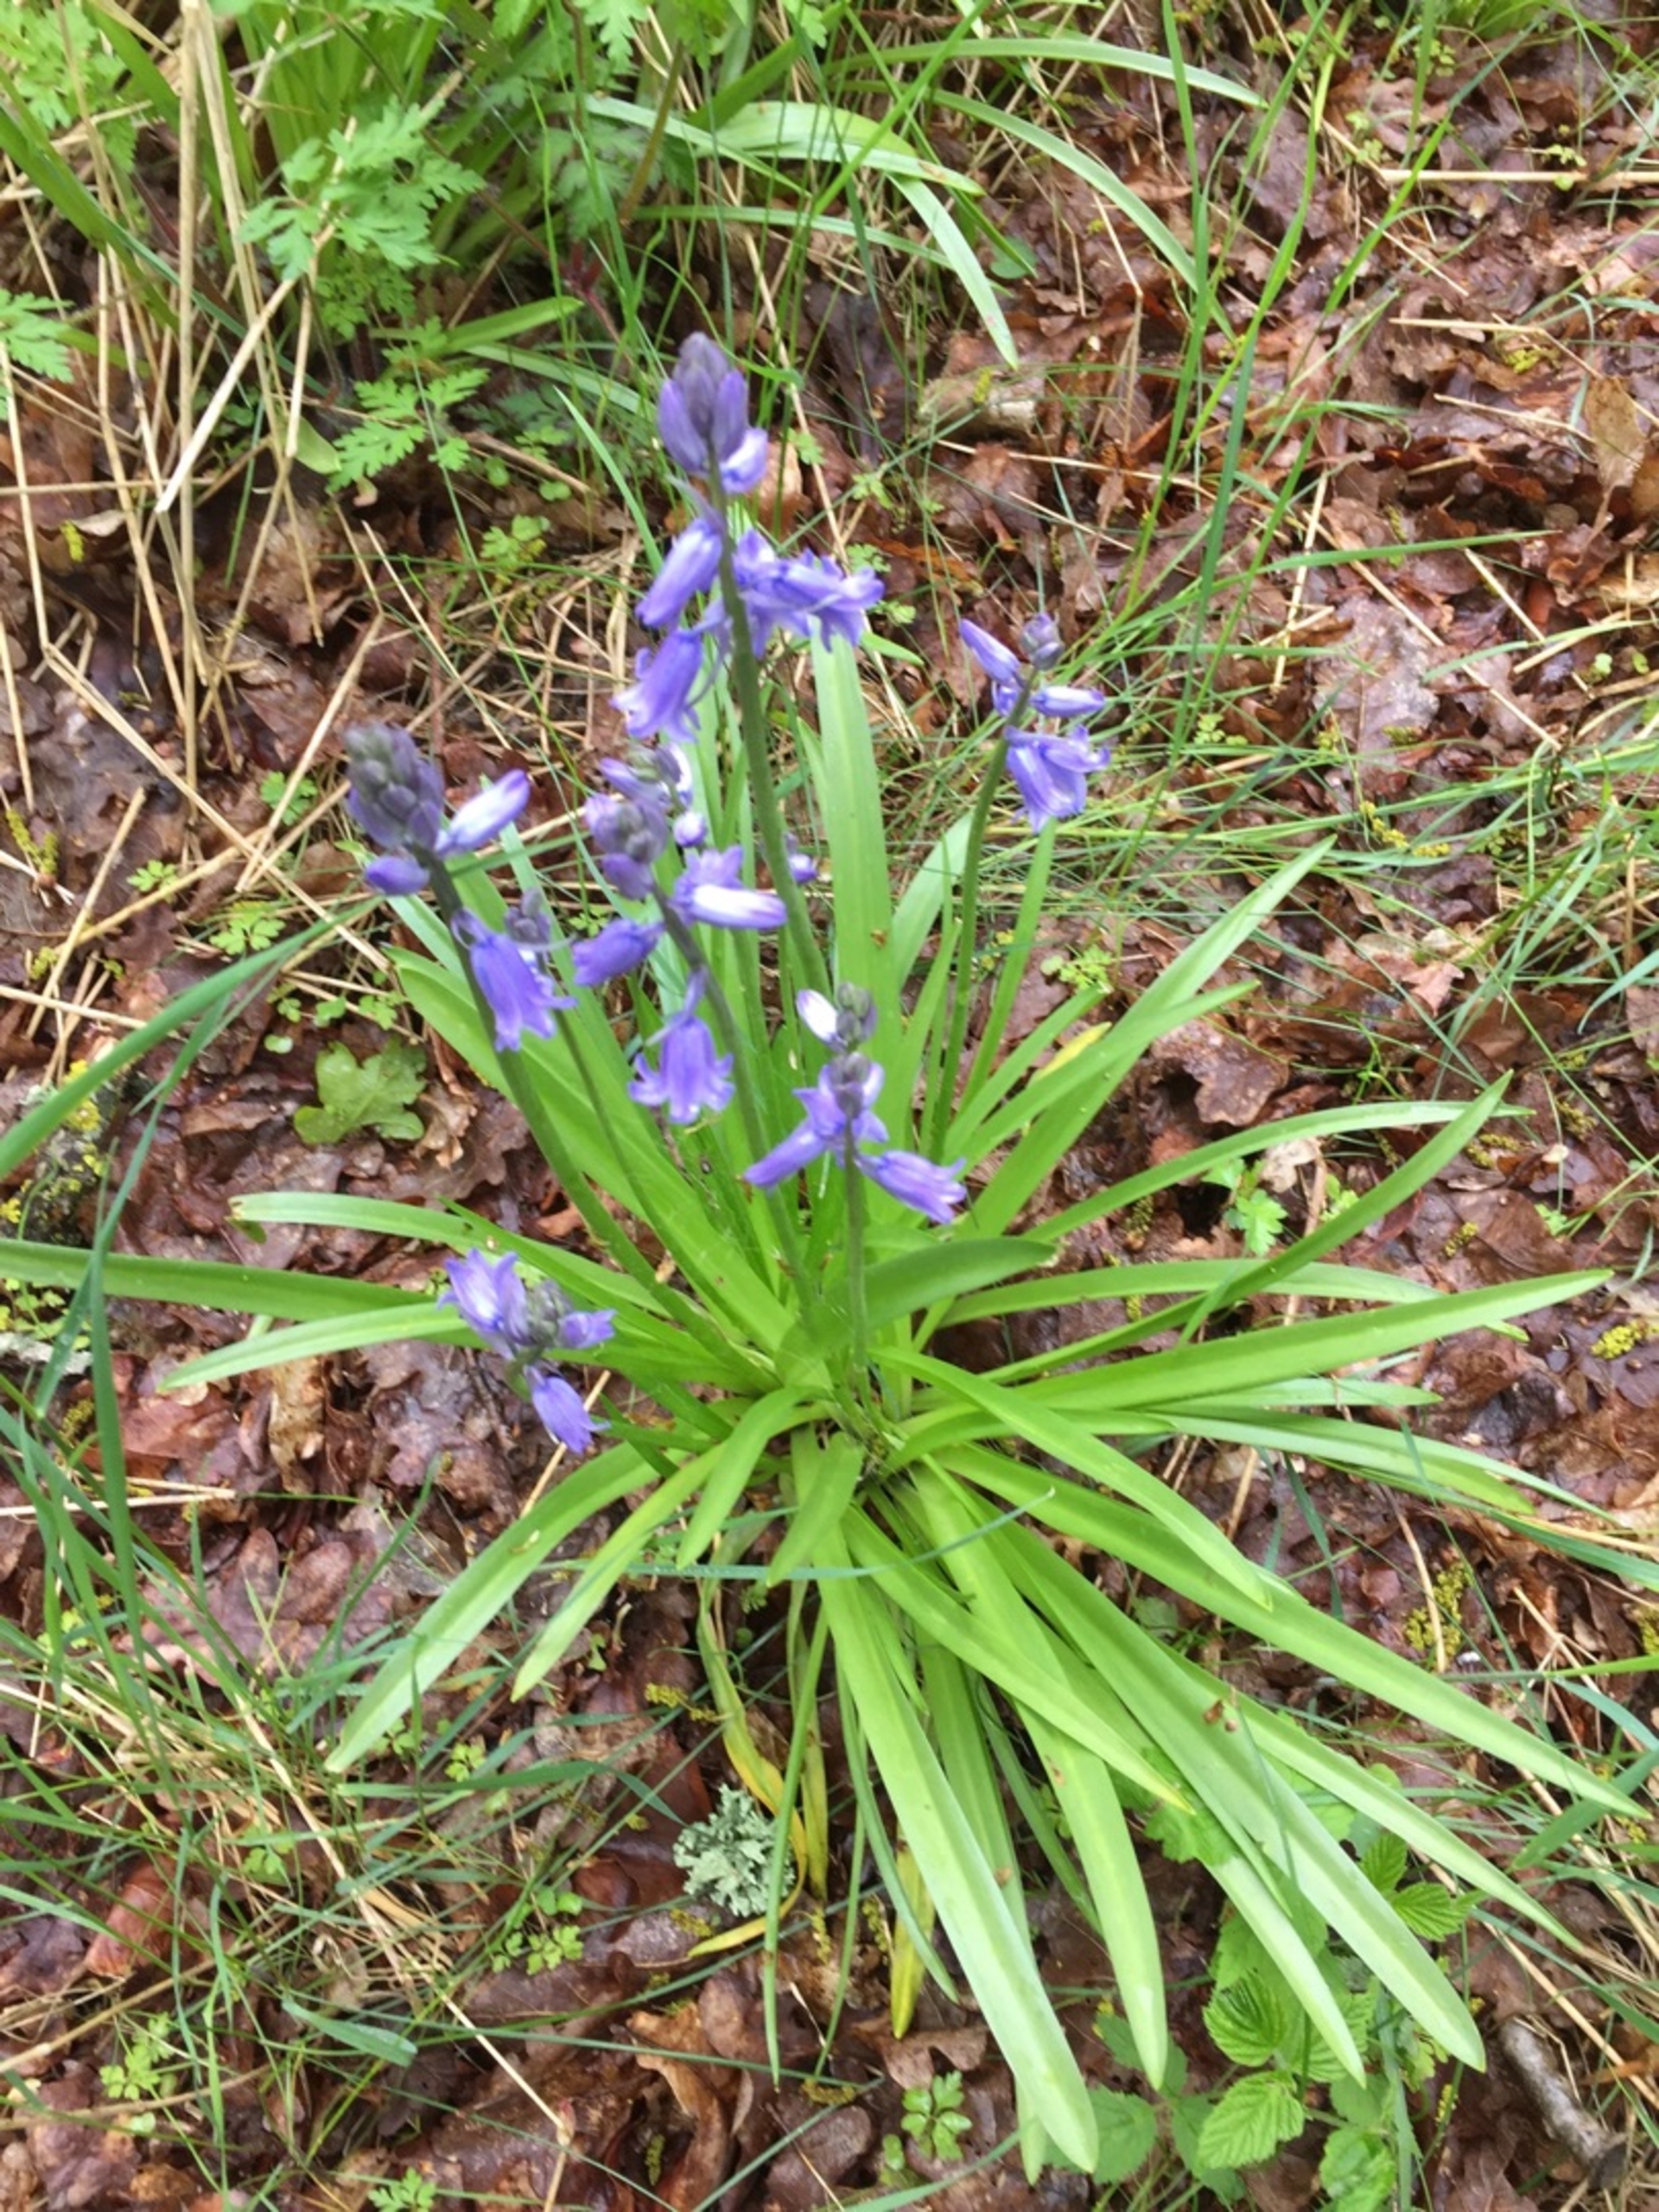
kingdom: Plantae
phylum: Tracheophyta
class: Liliopsida
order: Asparagales
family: Asparagaceae
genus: Hyacinthoides
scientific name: Hyacinthoides massartiana
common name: Hybrid-klokkeskilla
